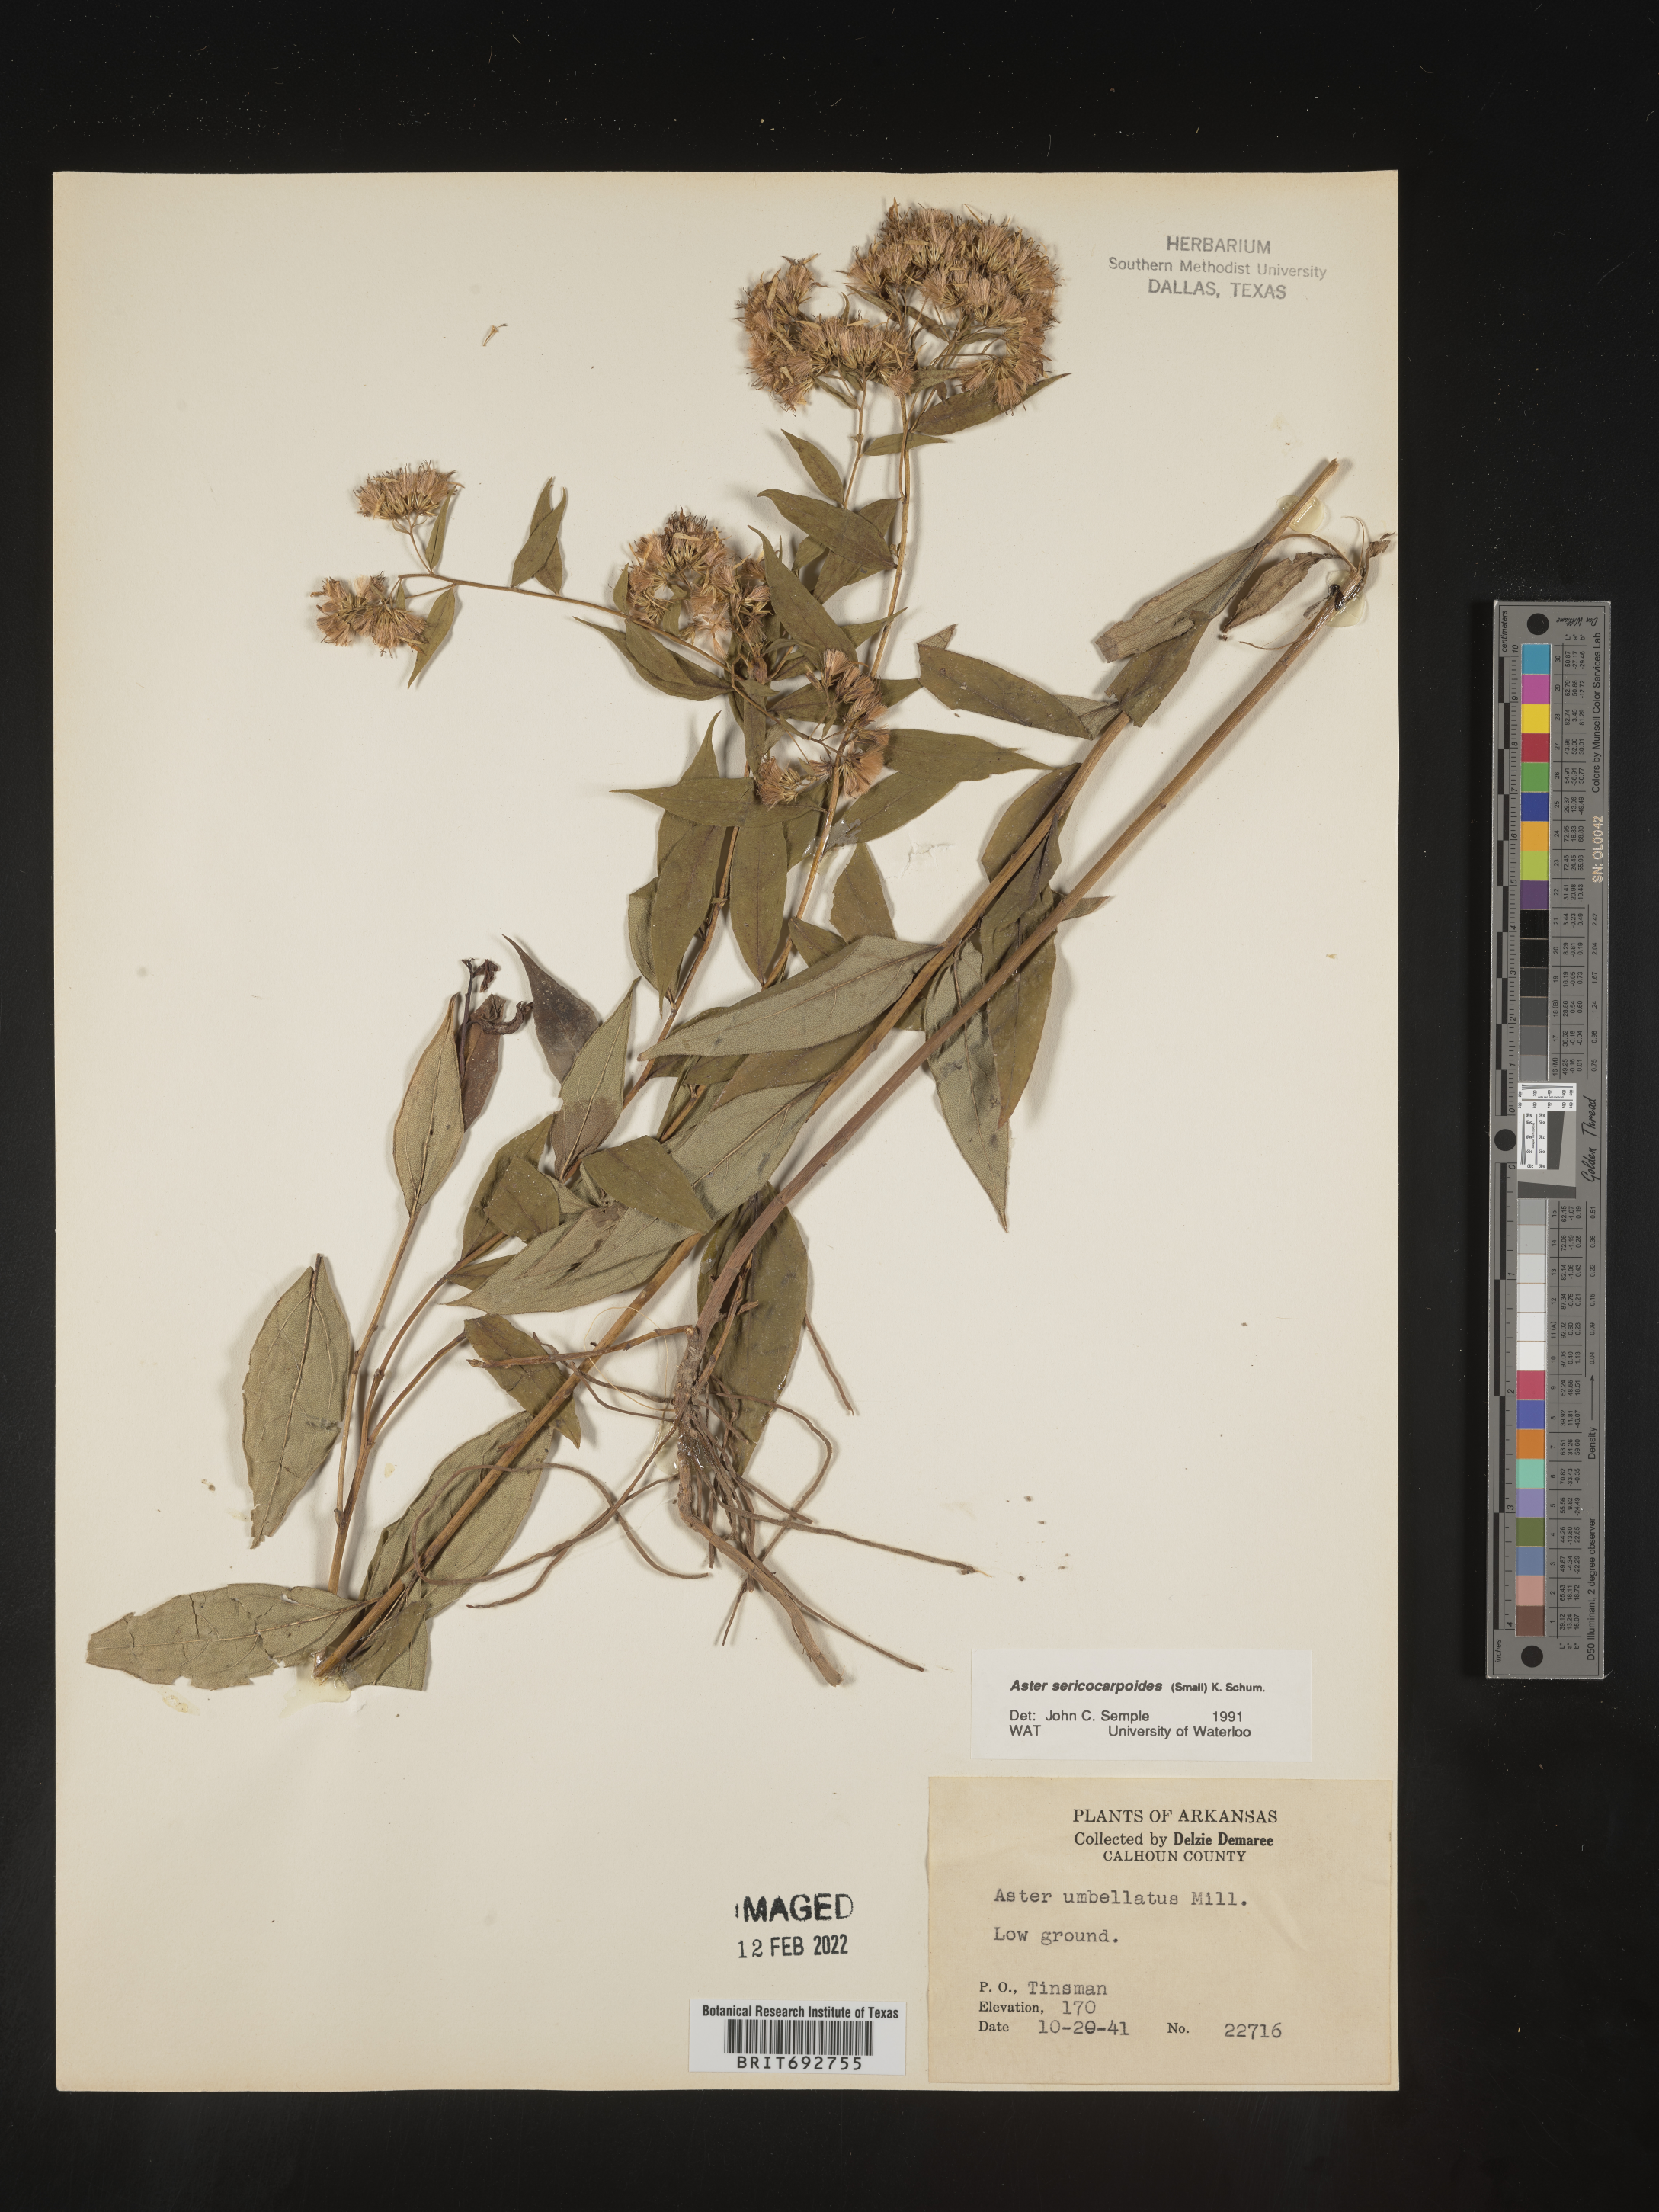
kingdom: Plantae
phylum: Tracheophyta
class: Magnoliopsida
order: Asterales
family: Asteraceae
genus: Doellingeria
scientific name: Doellingeria sericocarpoides
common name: Southern tall flat-top aster
